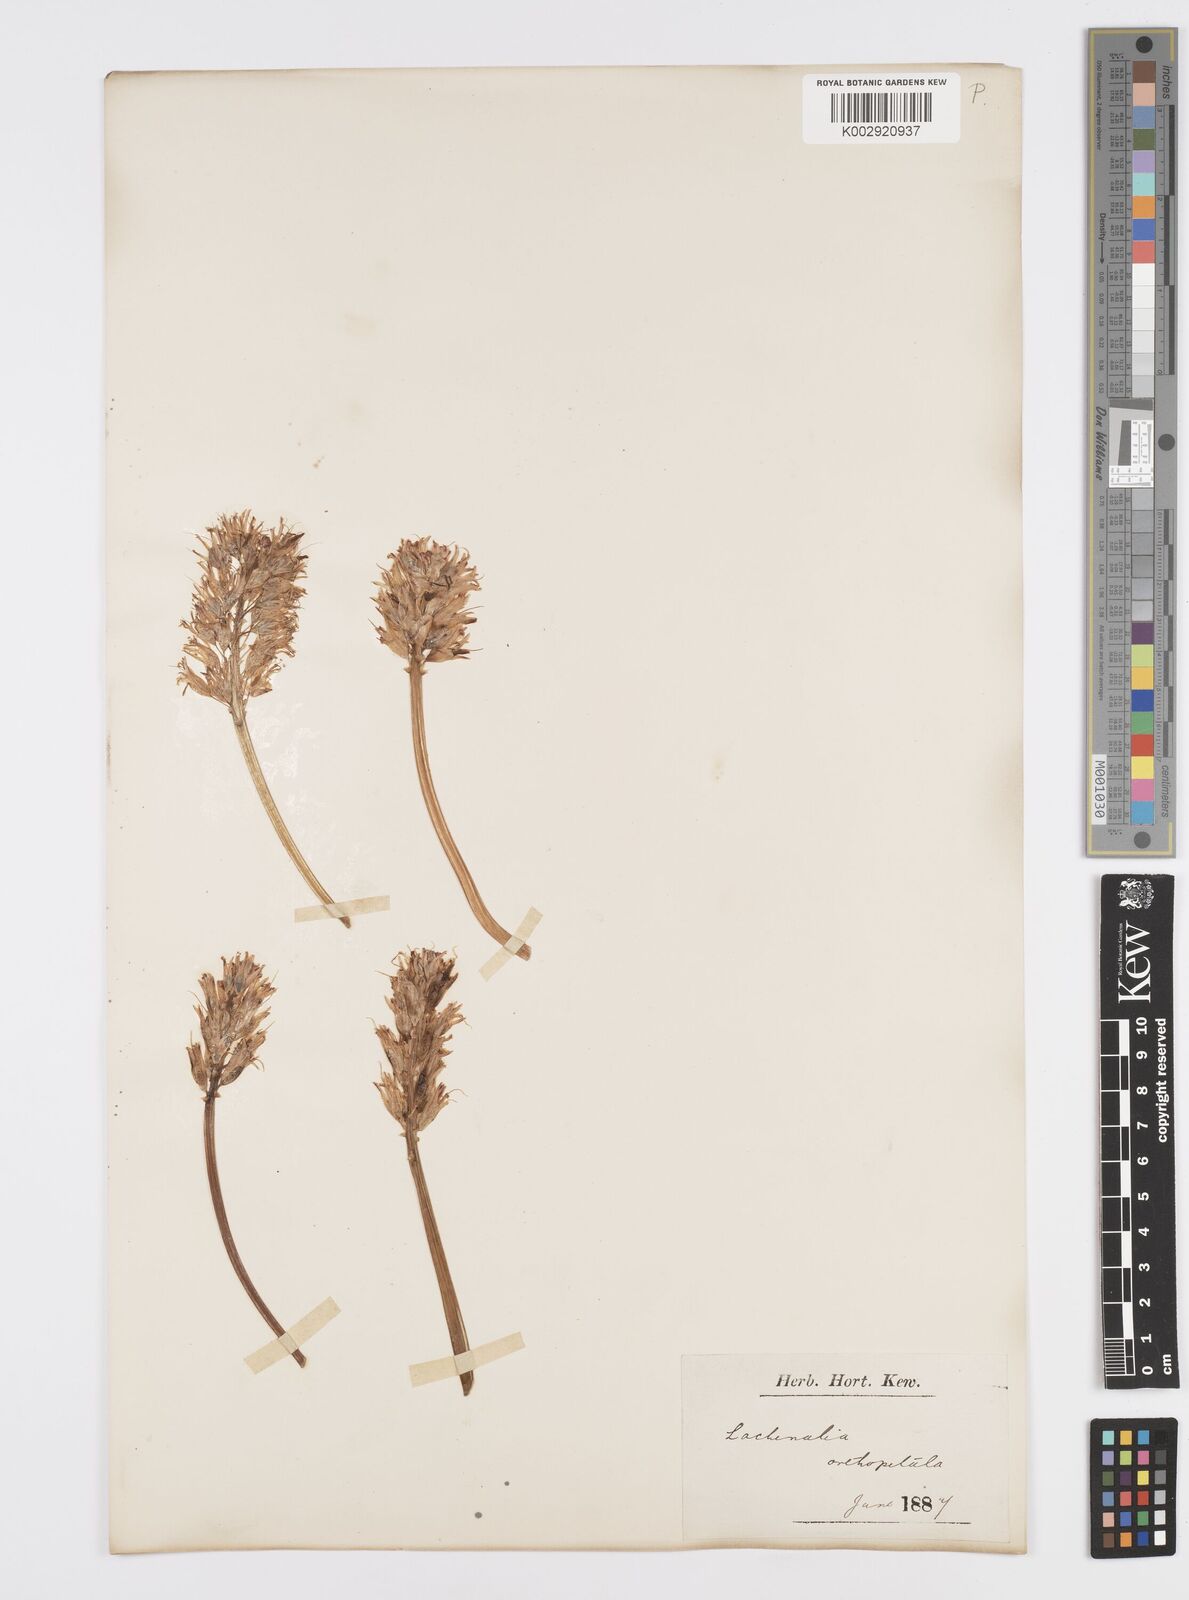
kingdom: Plantae
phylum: Tracheophyta
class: Liliopsida
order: Asparagales
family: Asparagaceae
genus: Lachenalia
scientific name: Lachenalia orthopetala
